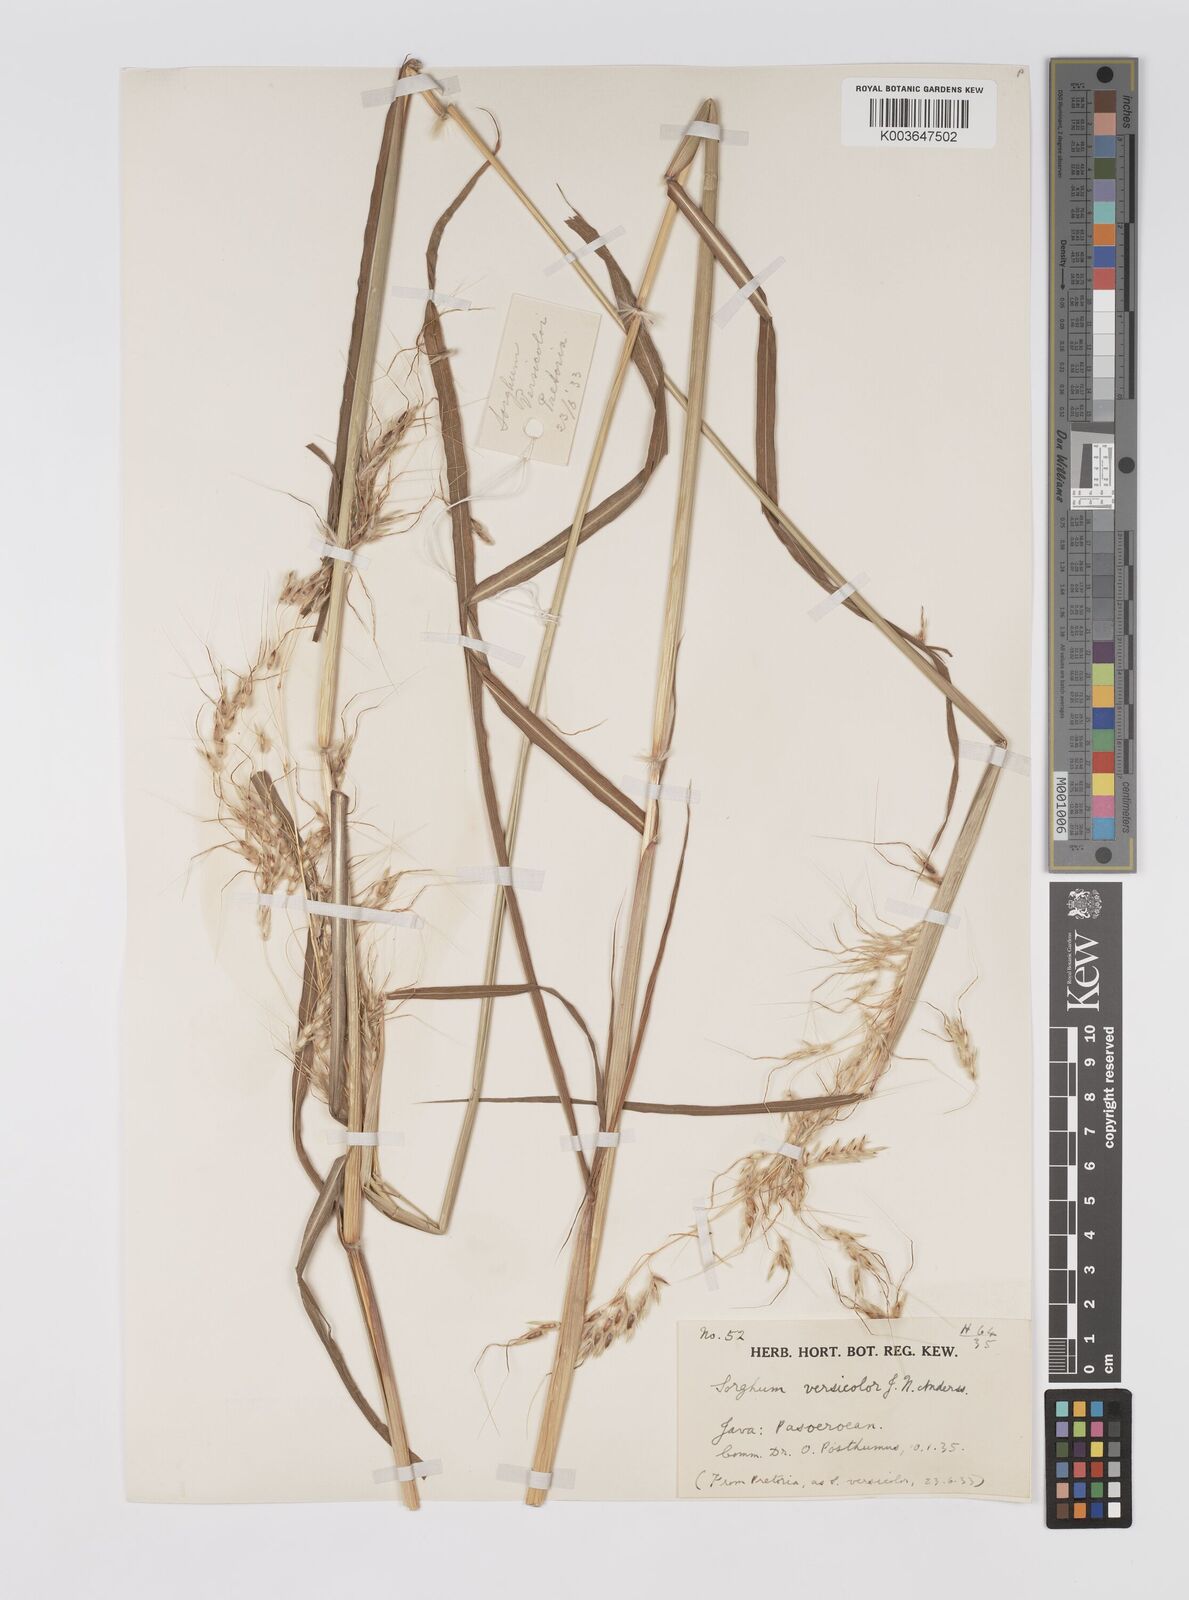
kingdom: Plantae
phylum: Tracheophyta
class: Liliopsida
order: Poales
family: Poaceae
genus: Sarga
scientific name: Sarga versicolor
